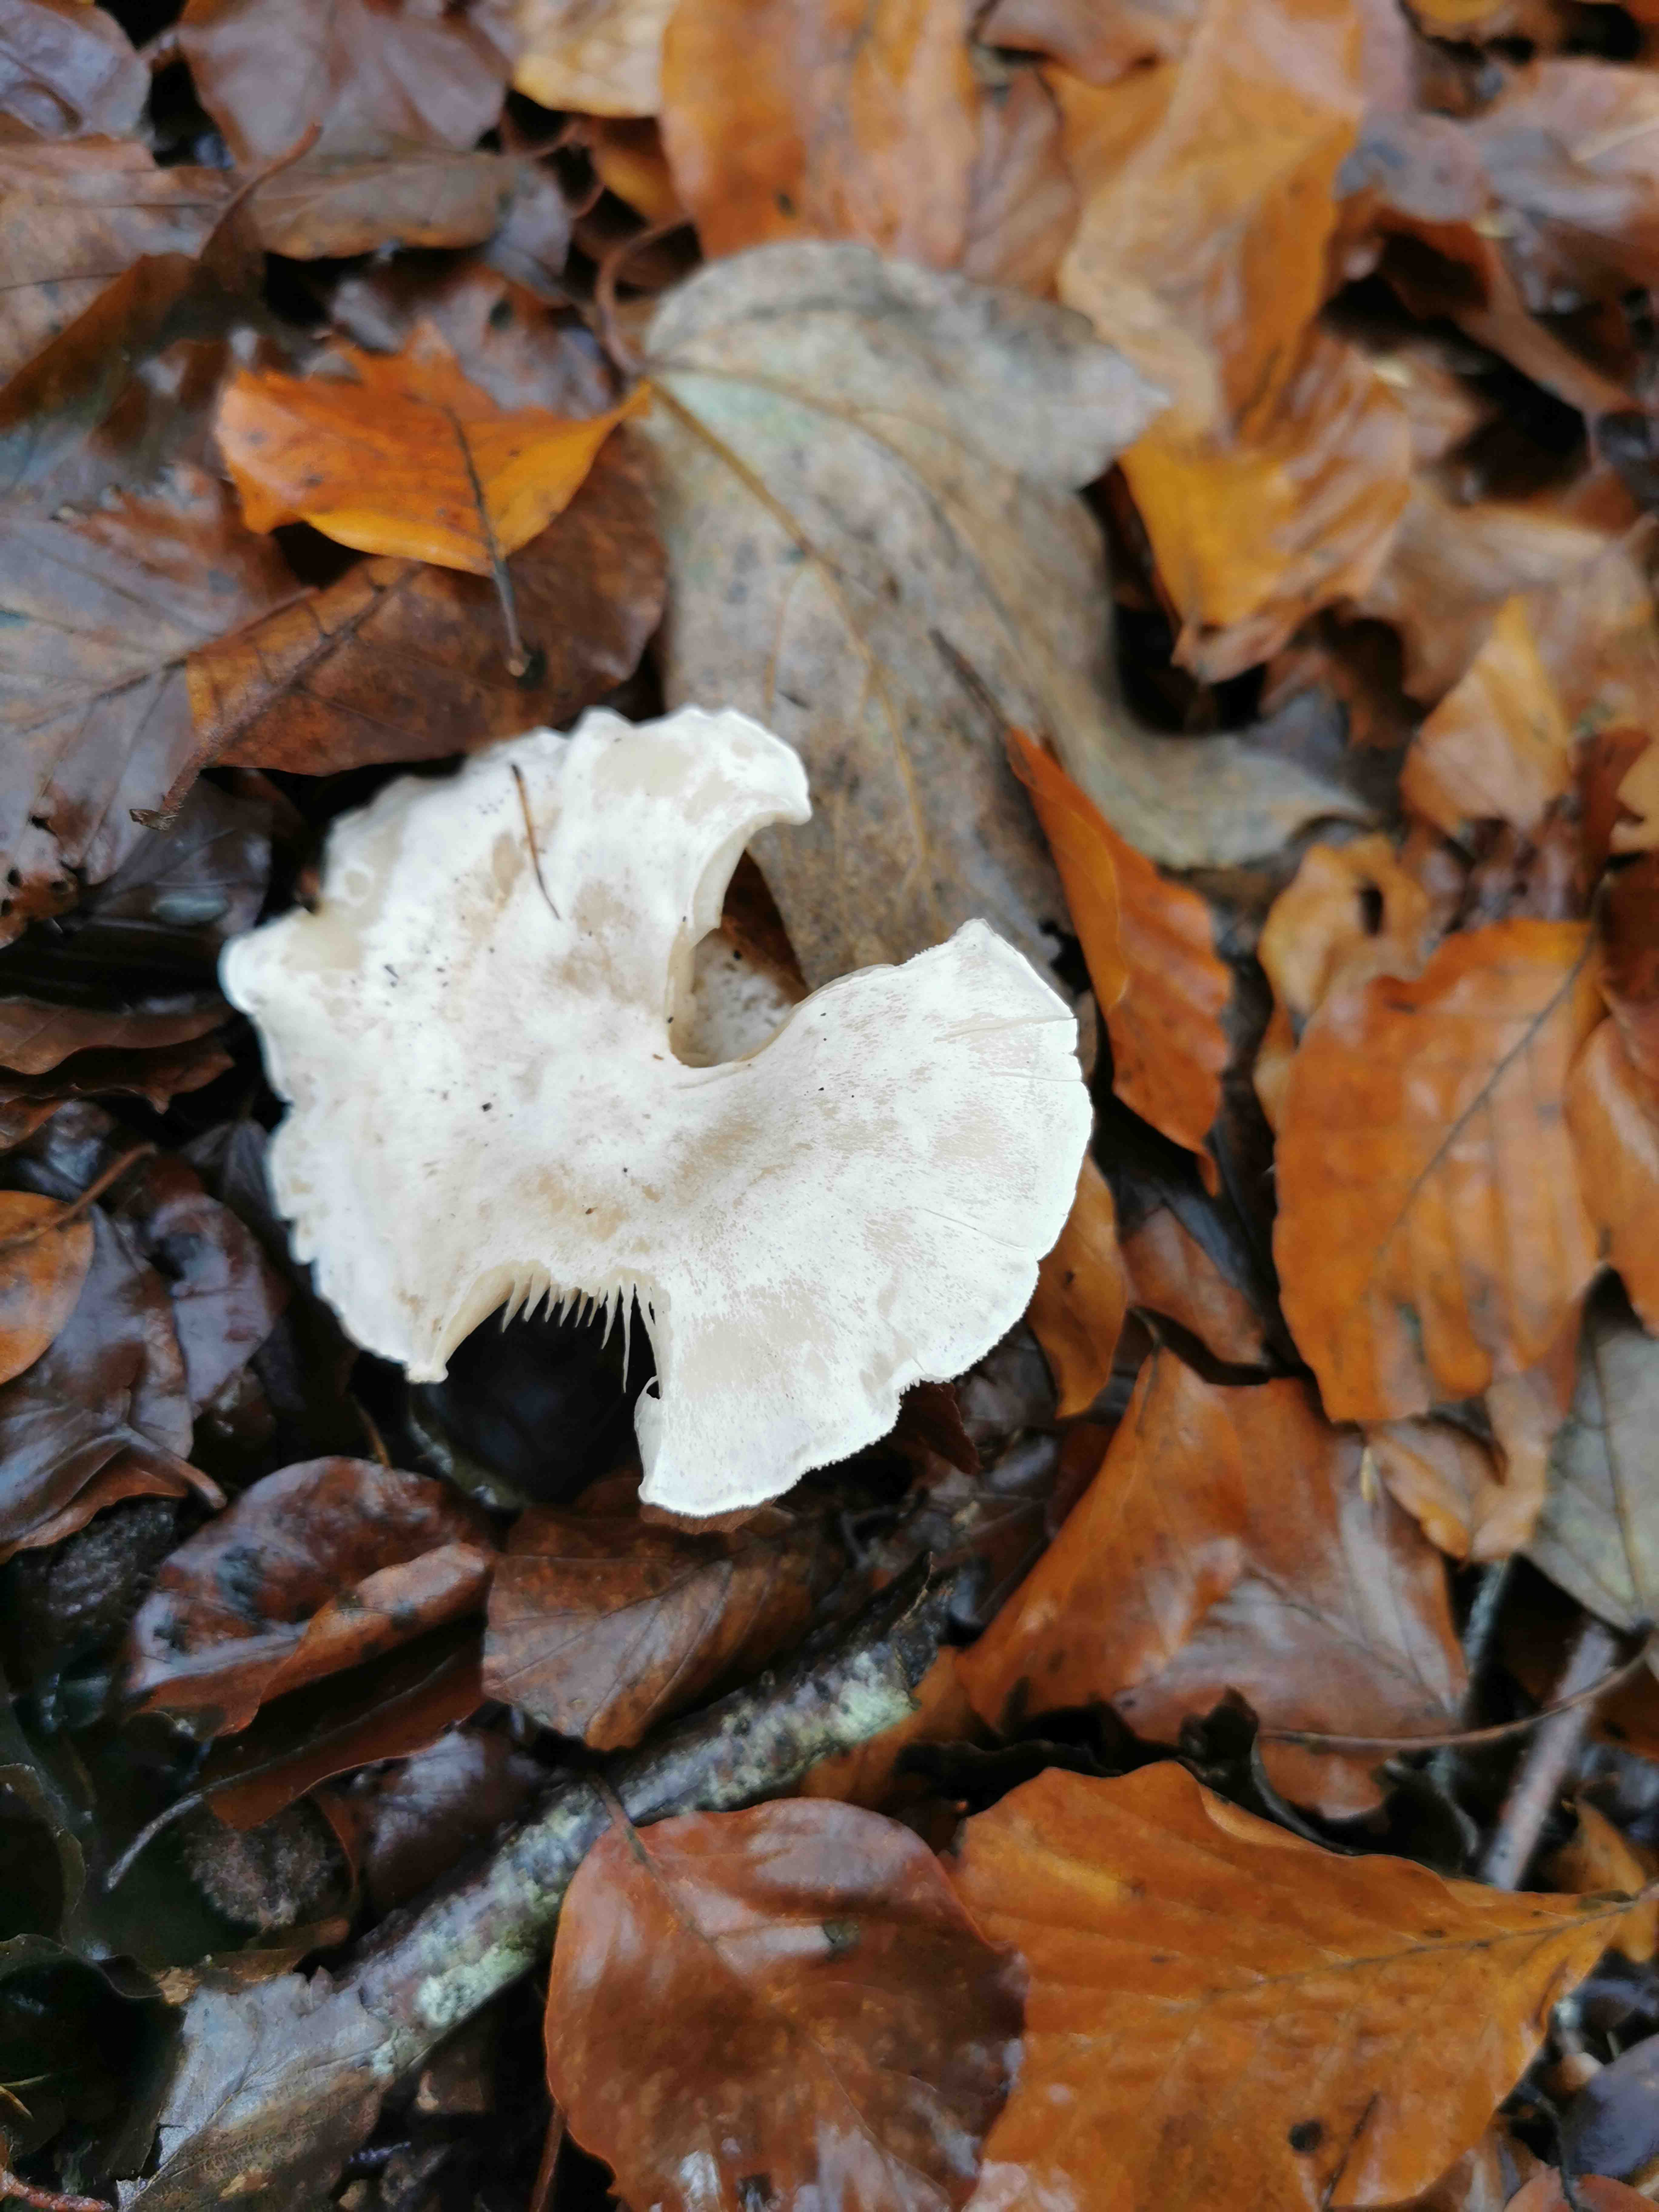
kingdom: Fungi
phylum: Basidiomycota
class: Agaricomycetes
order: Agaricales
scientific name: Agaricales
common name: champignonordenen
